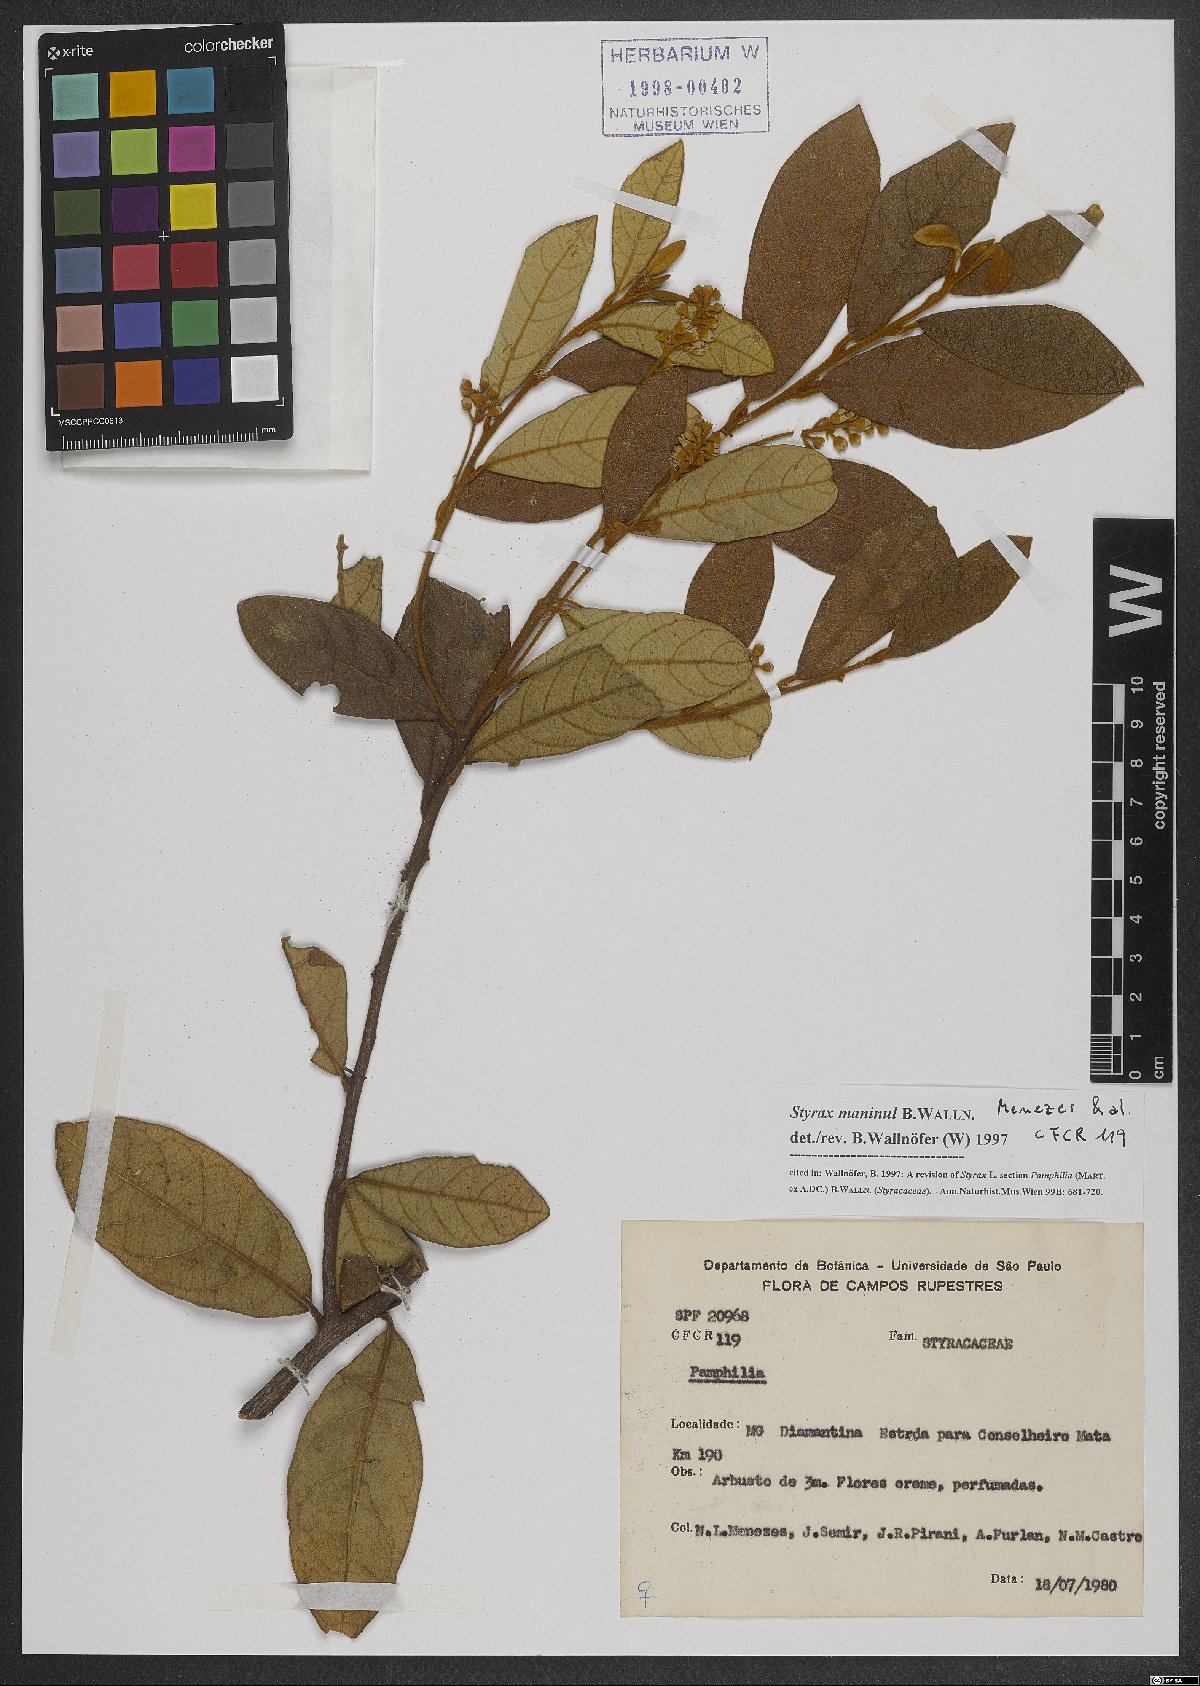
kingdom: Plantae
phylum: Tracheophyta
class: Magnoliopsida
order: Ericales
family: Styracaceae
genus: Styrax
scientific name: Styrax maninul
